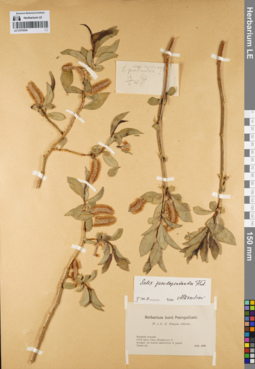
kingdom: Plantae
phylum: Tracheophyta
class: Magnoliopsida
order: Malpighiales
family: Salicaceae
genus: Salix
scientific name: Salix pseudopentandra
